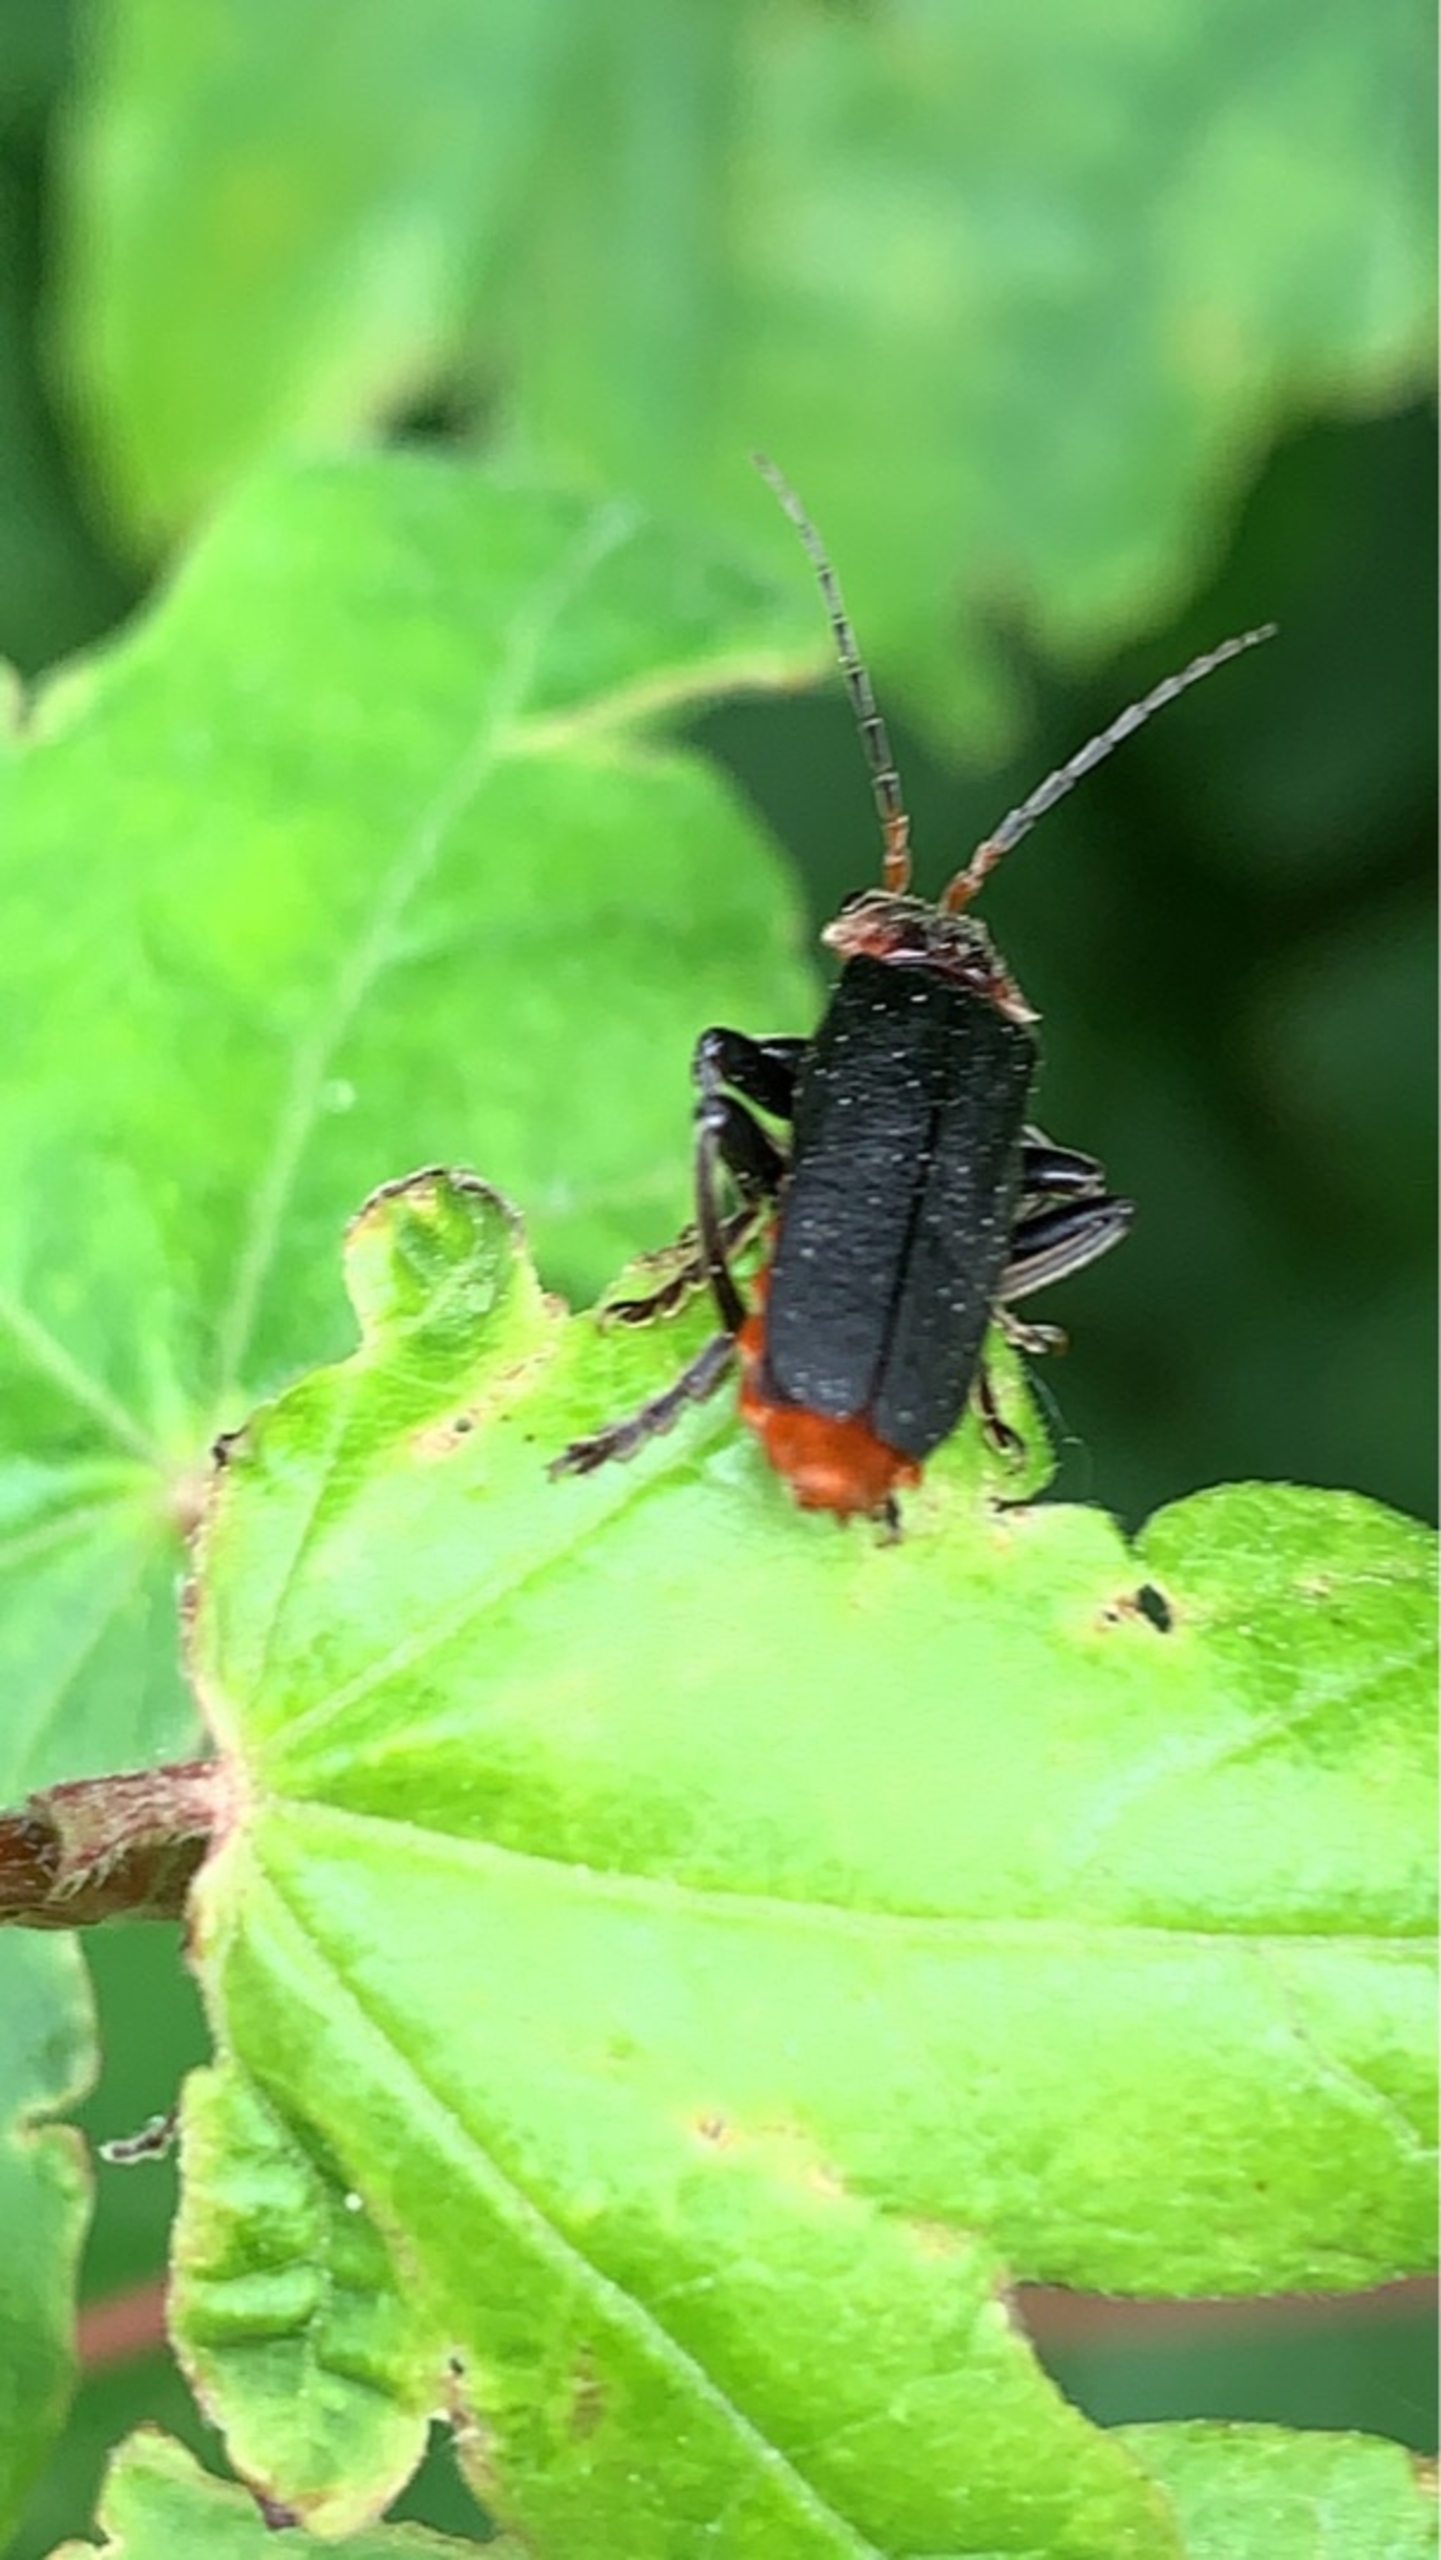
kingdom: Animalia
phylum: Arthropoda
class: Insecta
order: Coleoptera
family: Cantharidae
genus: Cantharis
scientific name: Cantharis fusca
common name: Stor blødvinge
